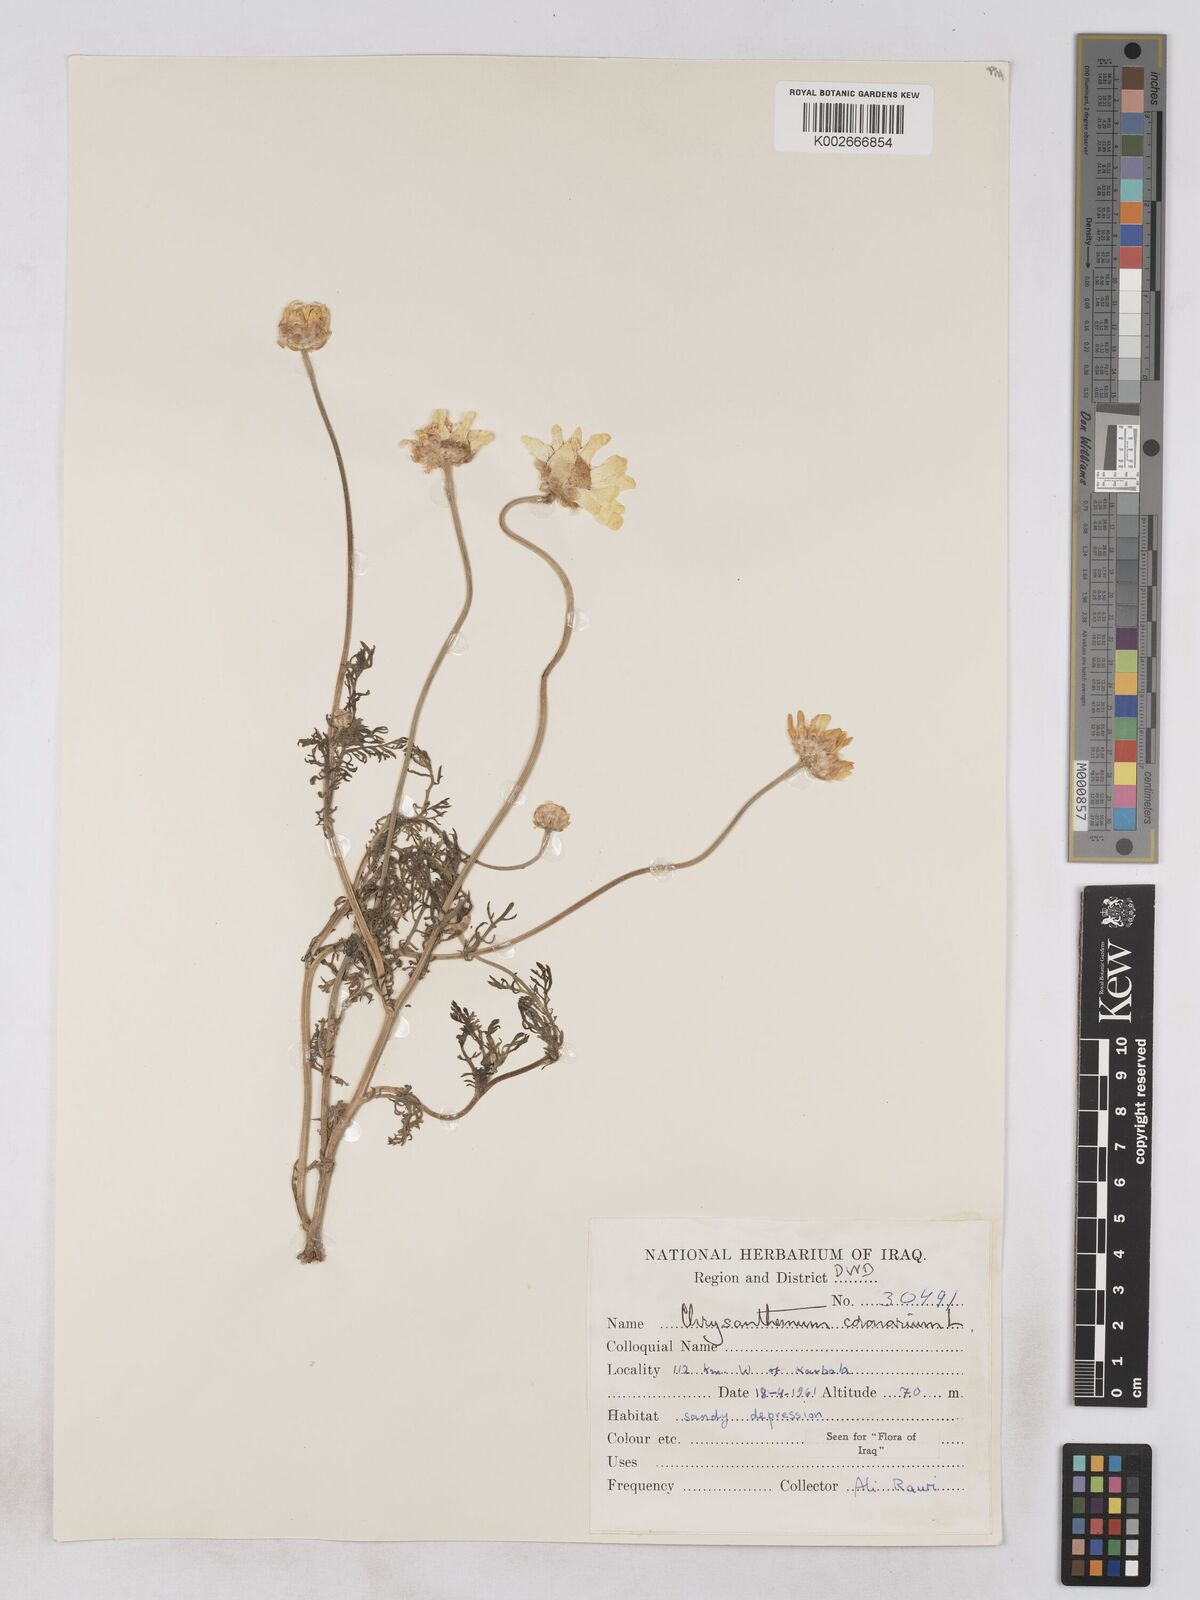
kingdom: Plantae
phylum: Tracheophyta
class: Magnoliopsida
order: Asterales
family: Asteraceae
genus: Glebionis
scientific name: Glebionis coronaria
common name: Crowndaisy
